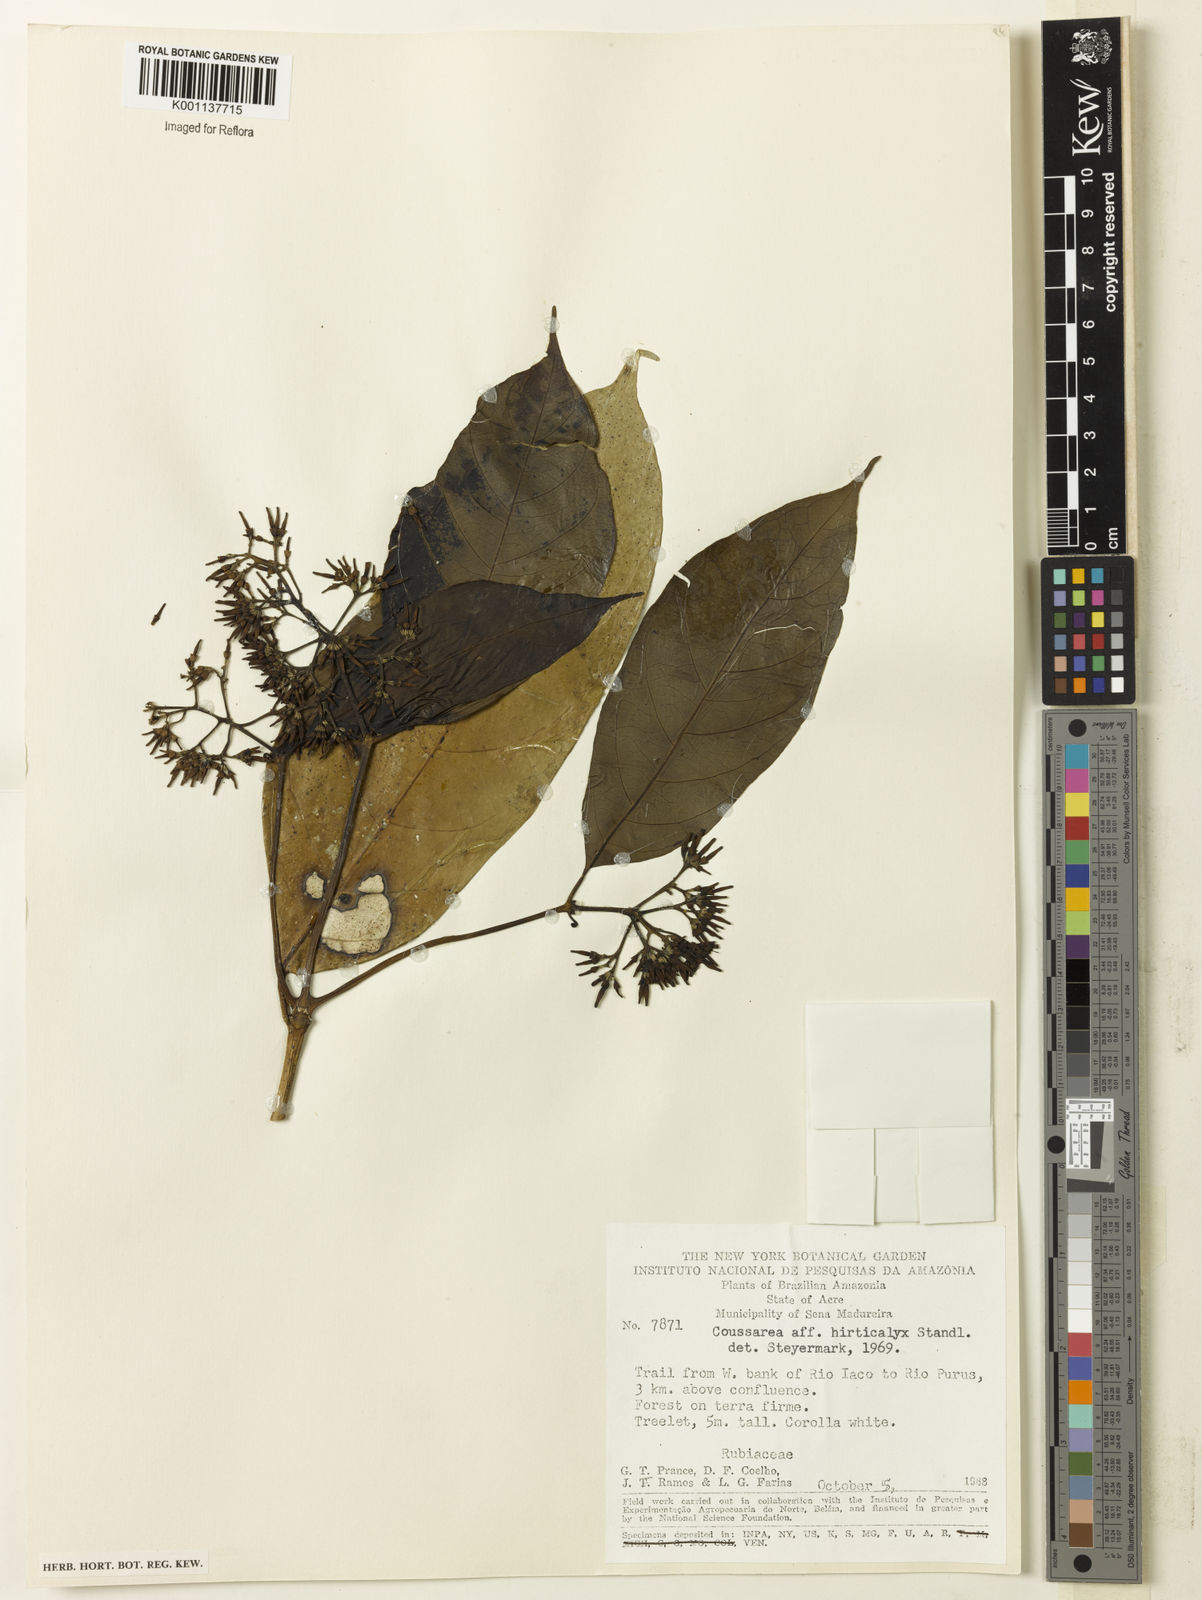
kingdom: Plantae
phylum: Tracheophyta
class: Magnoliopsida
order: Gentianales
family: Rubiaceae
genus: Coussarea
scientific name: Coussarea hirticalyx
